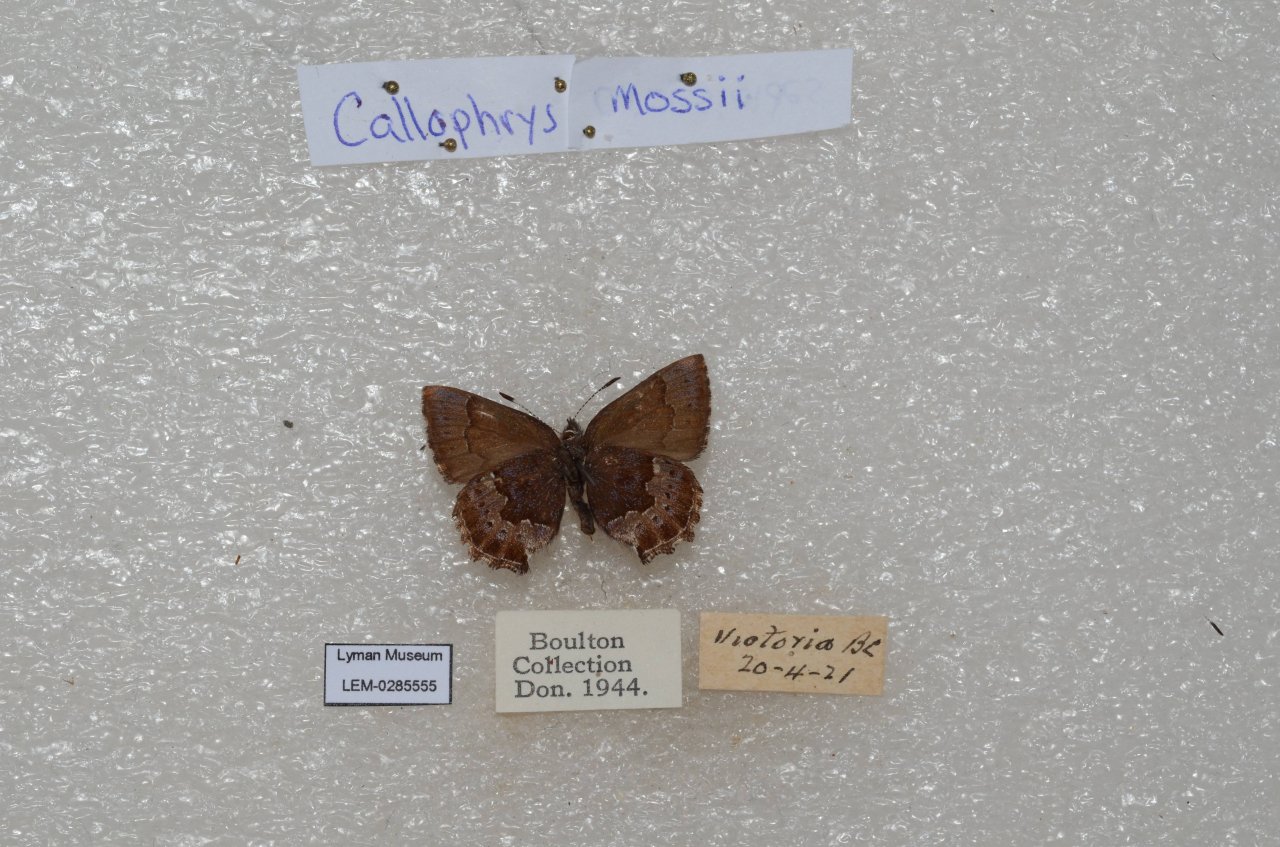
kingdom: Animalia
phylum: Arthropoda
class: Insecta
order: Lepidoptera
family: Lycaenidae
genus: Callophrys
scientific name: Callophrys mossii
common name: Moss' Elfin
